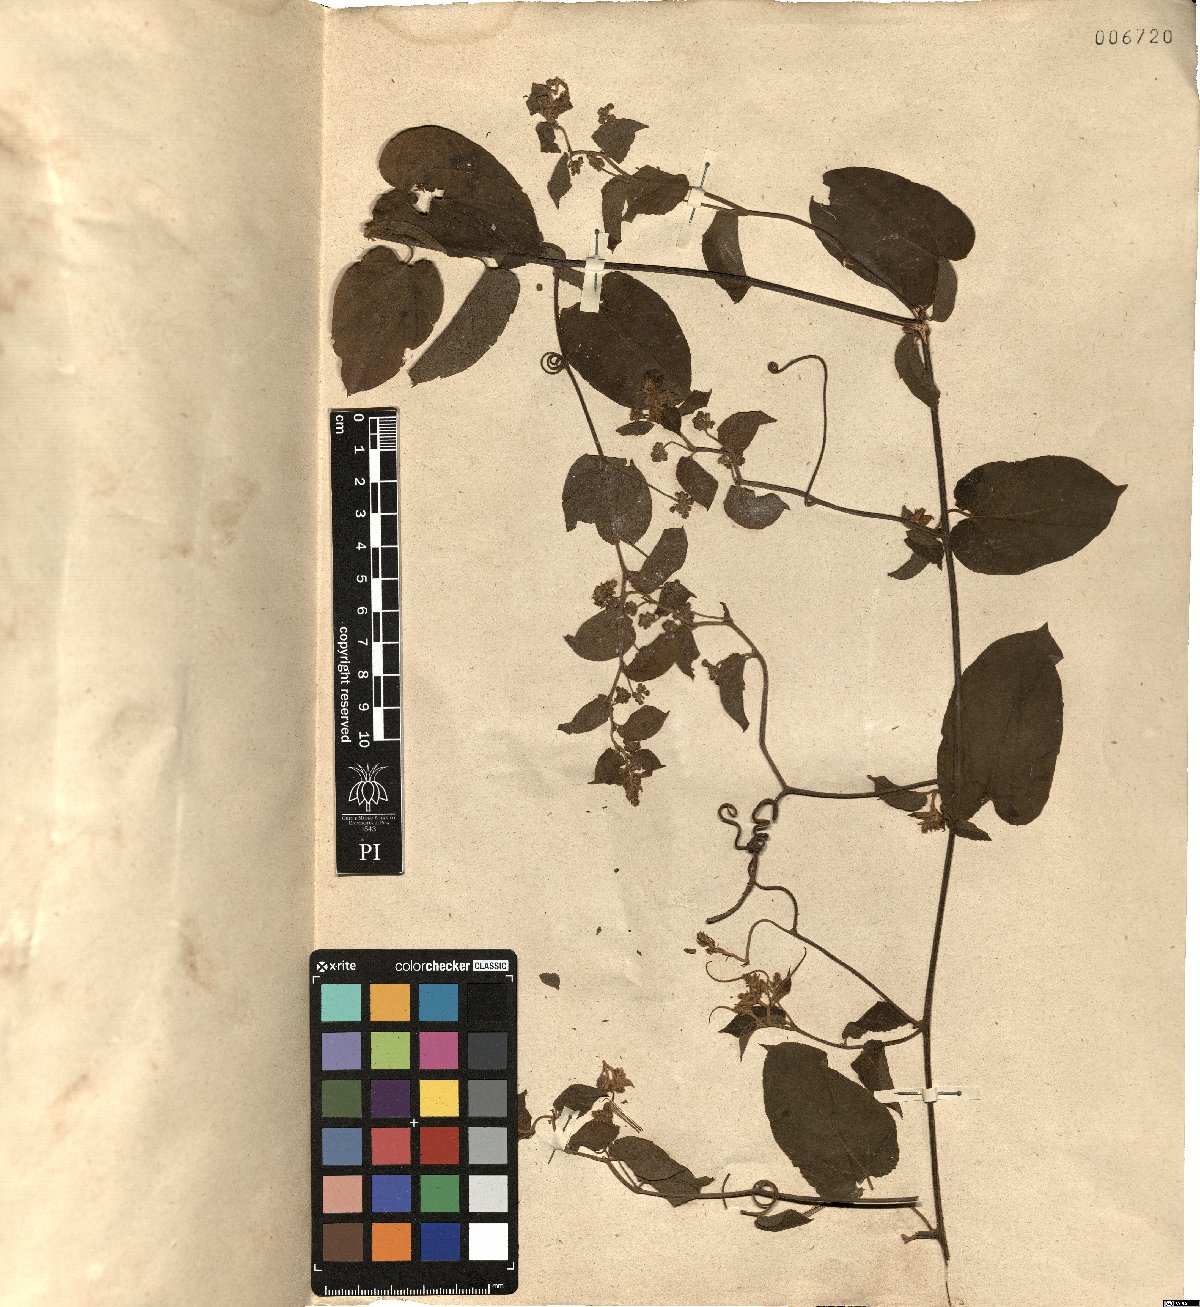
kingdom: Plantae
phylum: Tracheophyta
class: Magnoliopsida
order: Rosales
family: Rhamnaceae
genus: Reissekia
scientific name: Reissekia smilacina
